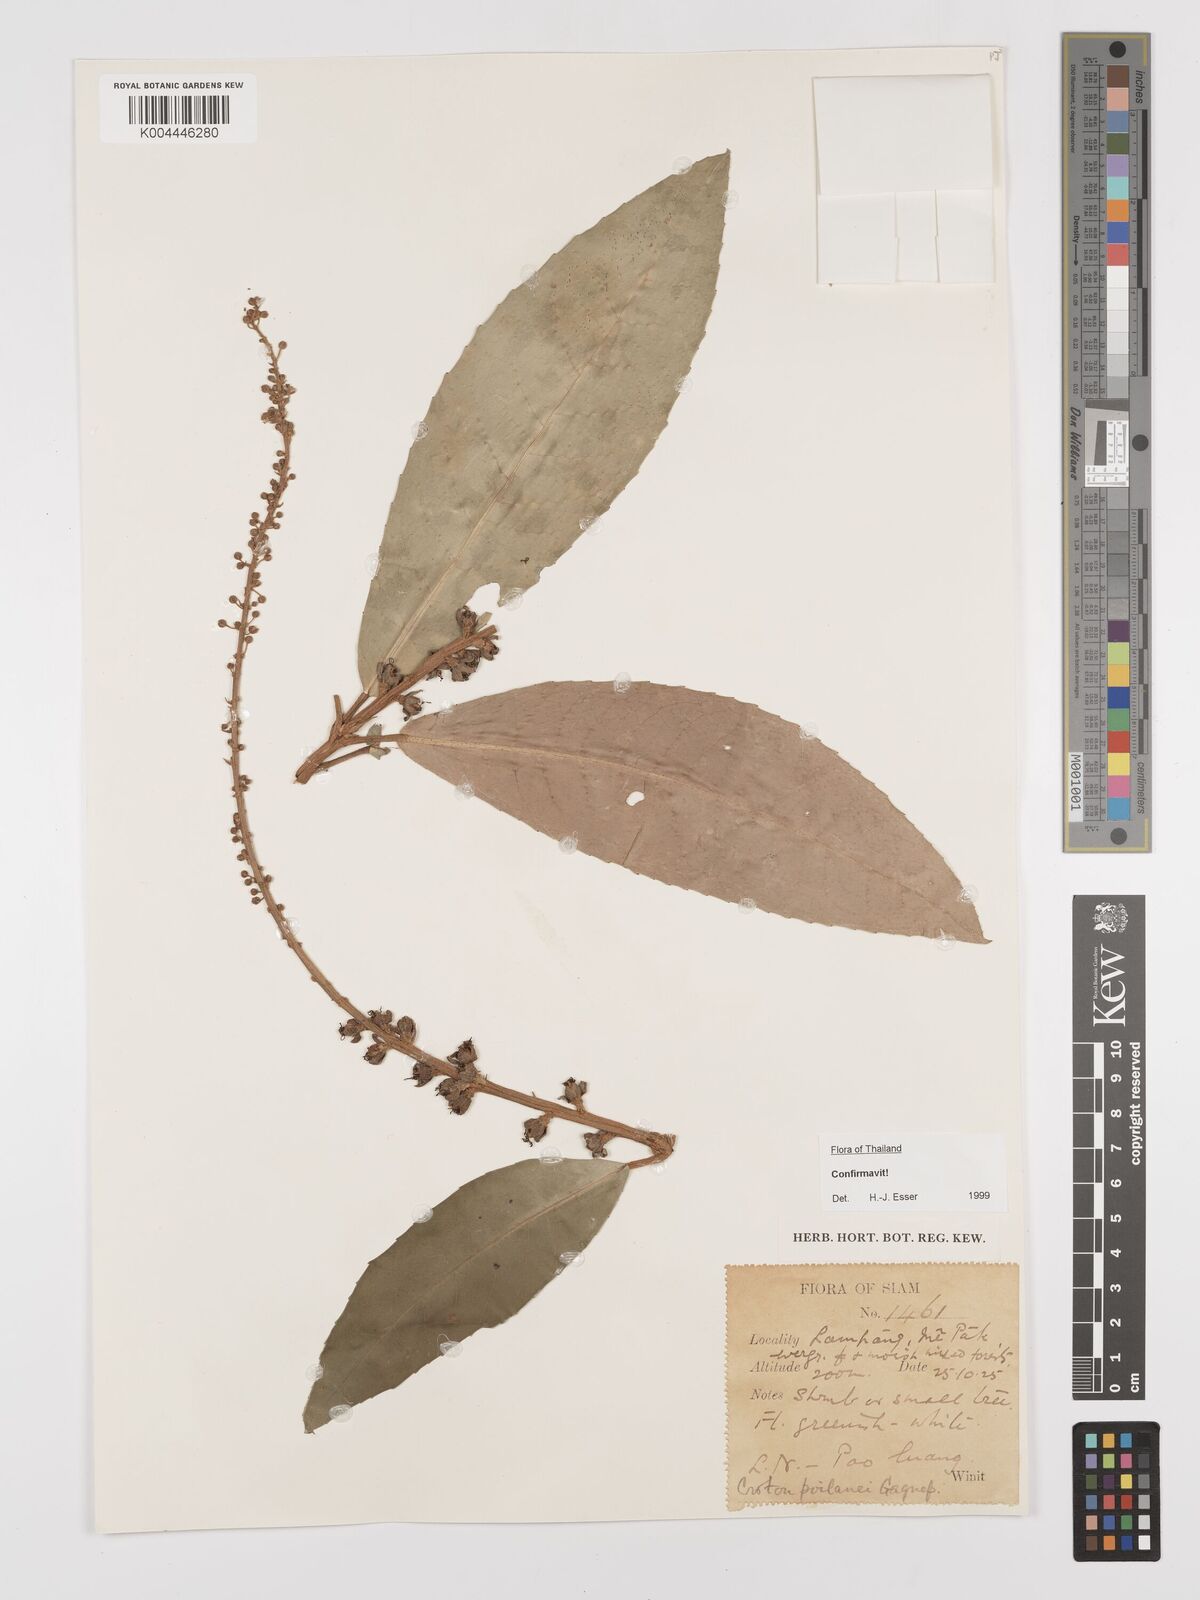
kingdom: Plantae
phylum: Tracheophyta
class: Magnoliopsida
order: Malpighiales
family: Euphorbiaceae
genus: Croton
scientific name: Croton poilanei
